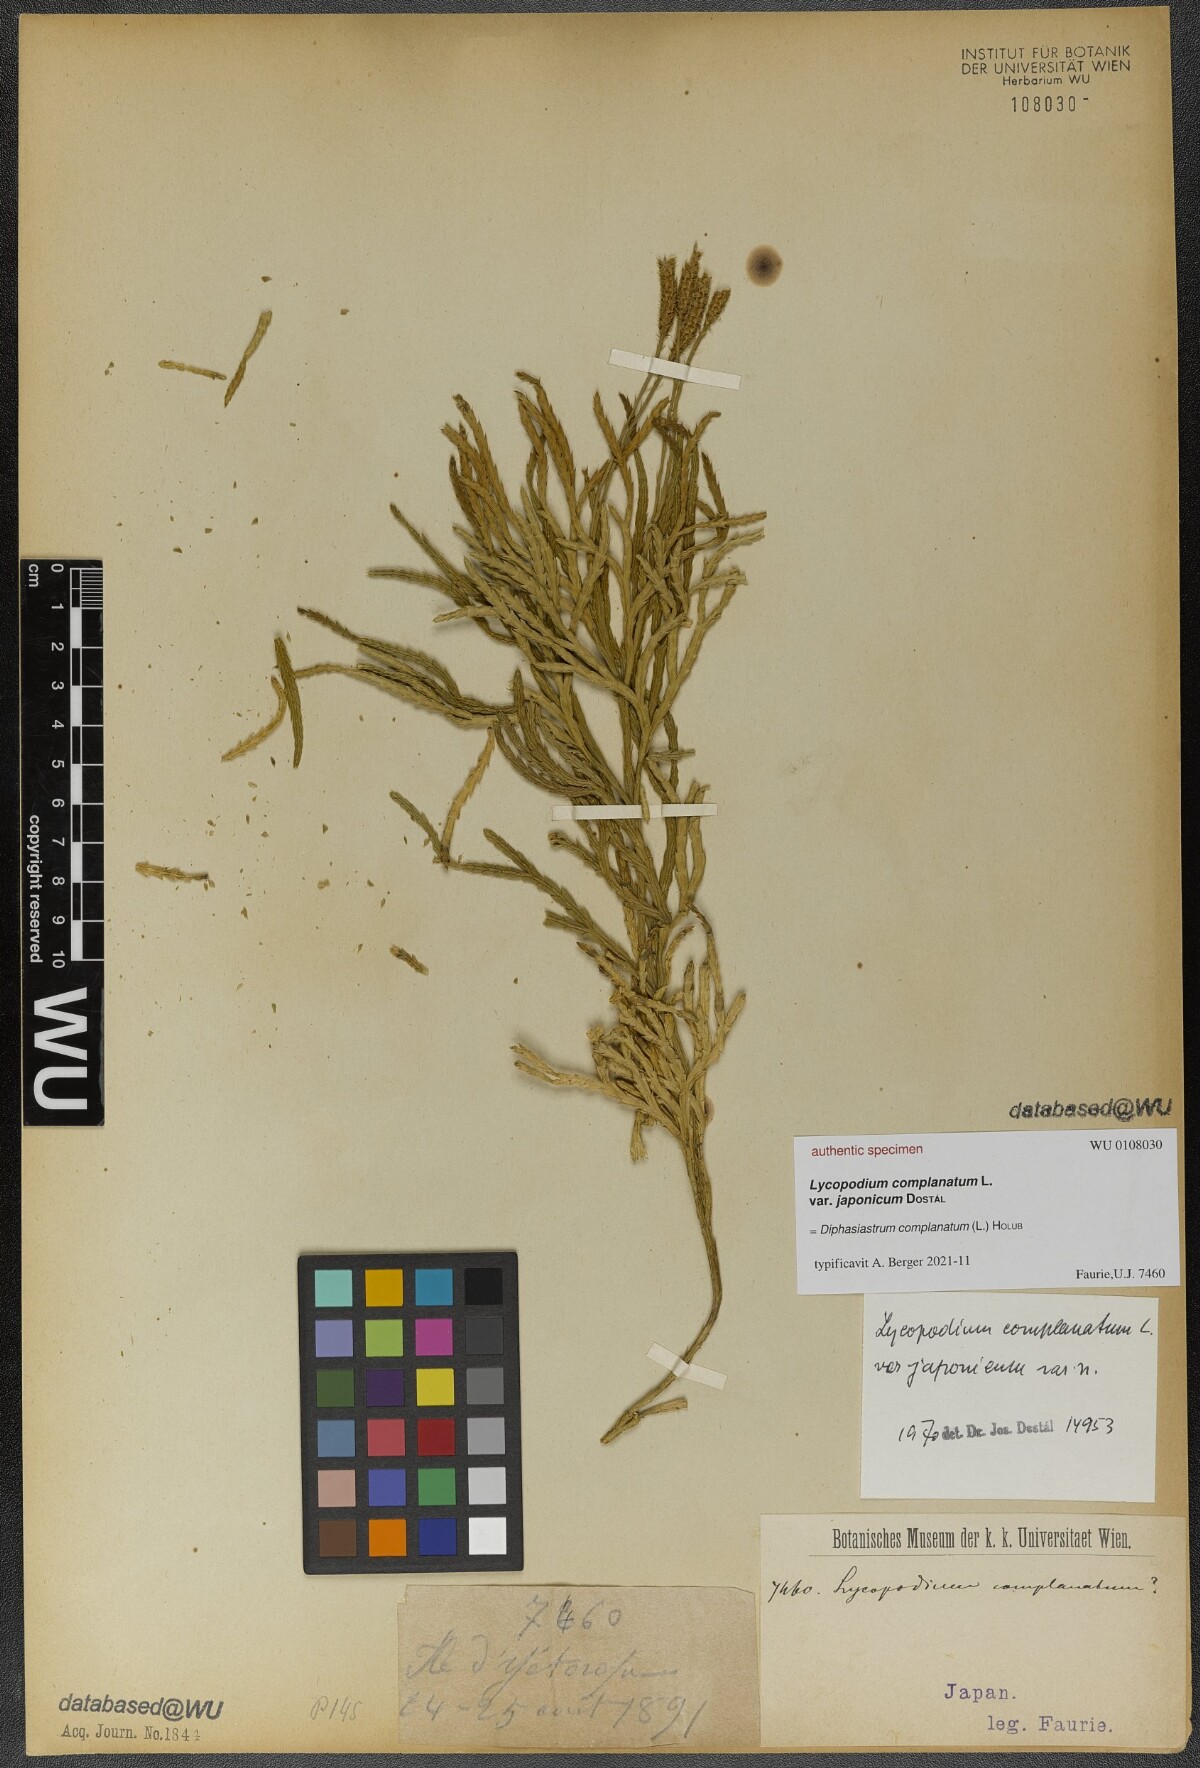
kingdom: Plantae
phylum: Tracheophyta
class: Lycopodiopsida
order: Lycopodiales
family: Lycopodiaceae
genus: Diphasiastrum
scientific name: Diphasiastrum complanatum
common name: Northern running-pine
